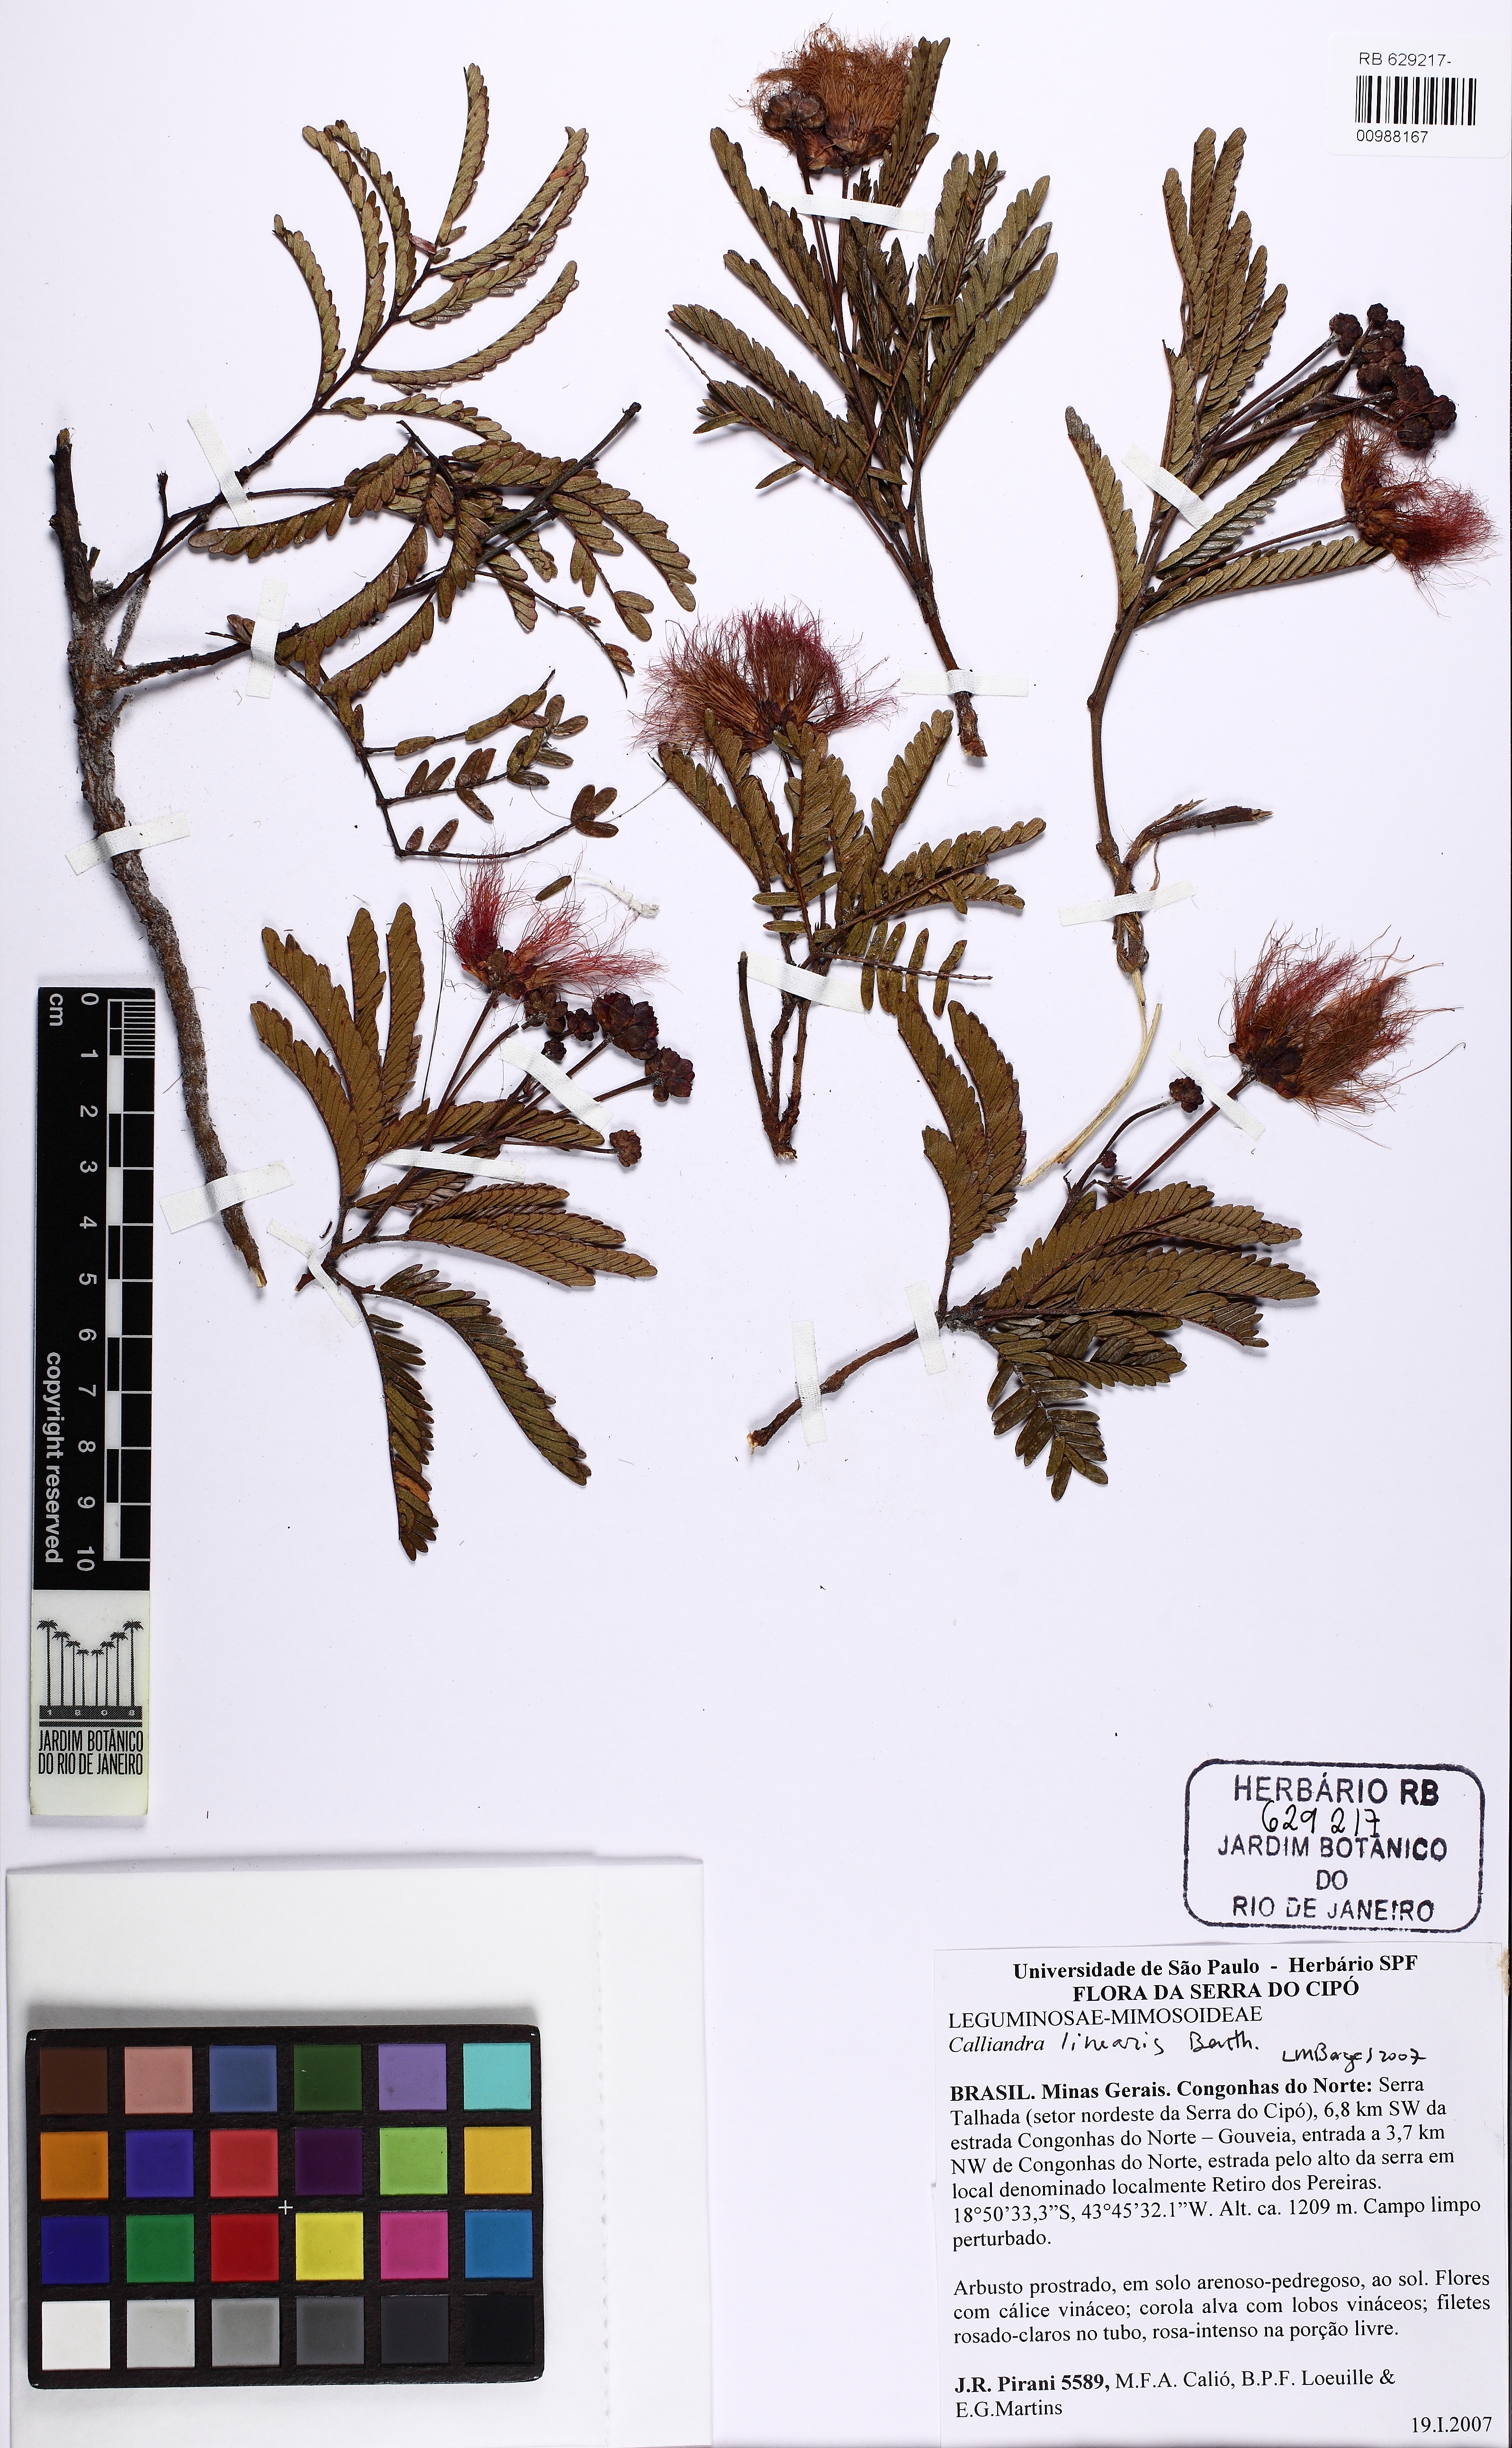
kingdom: Plantae
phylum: Tracheophyta
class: Magnoliopsida
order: Fabales
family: Fabaceae
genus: Calliandra
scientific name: Calliandra linearis
